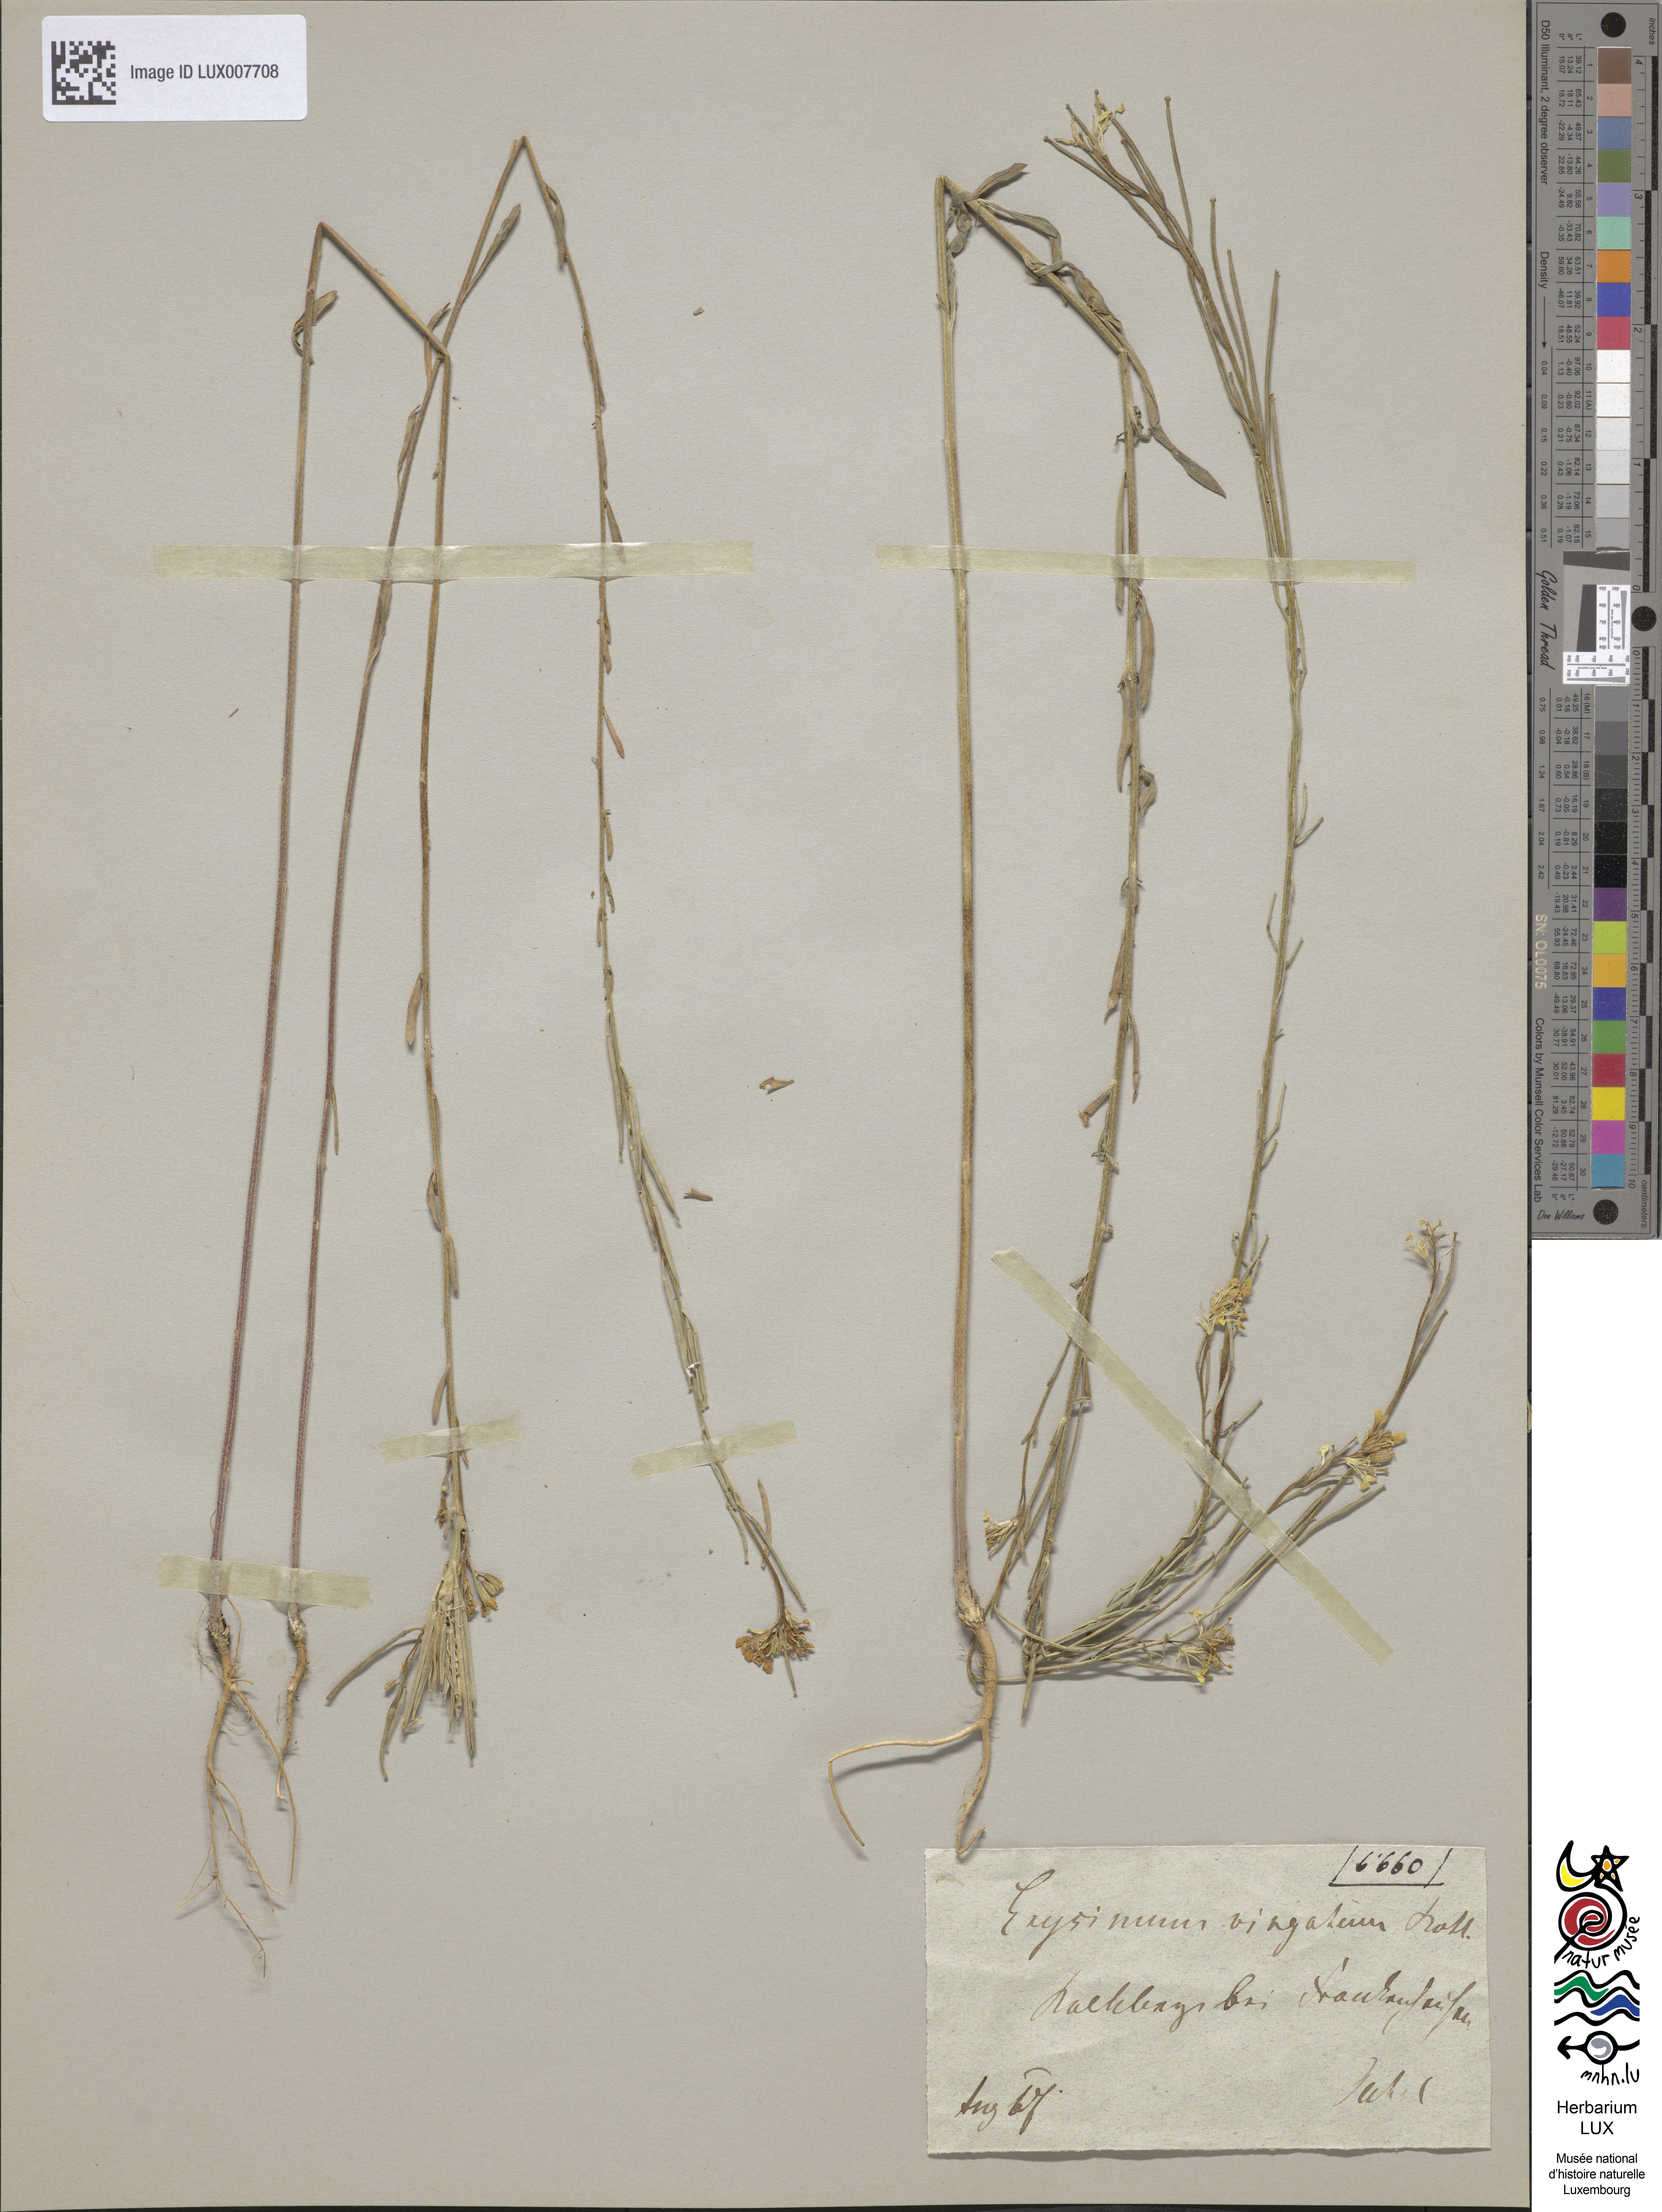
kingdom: Plantae
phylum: Tracheophyta
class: Magnoliopsida
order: Brassicales
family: Brassicaceae
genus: Erysimum
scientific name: Erysimum hieraciifolium
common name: European wallflower
